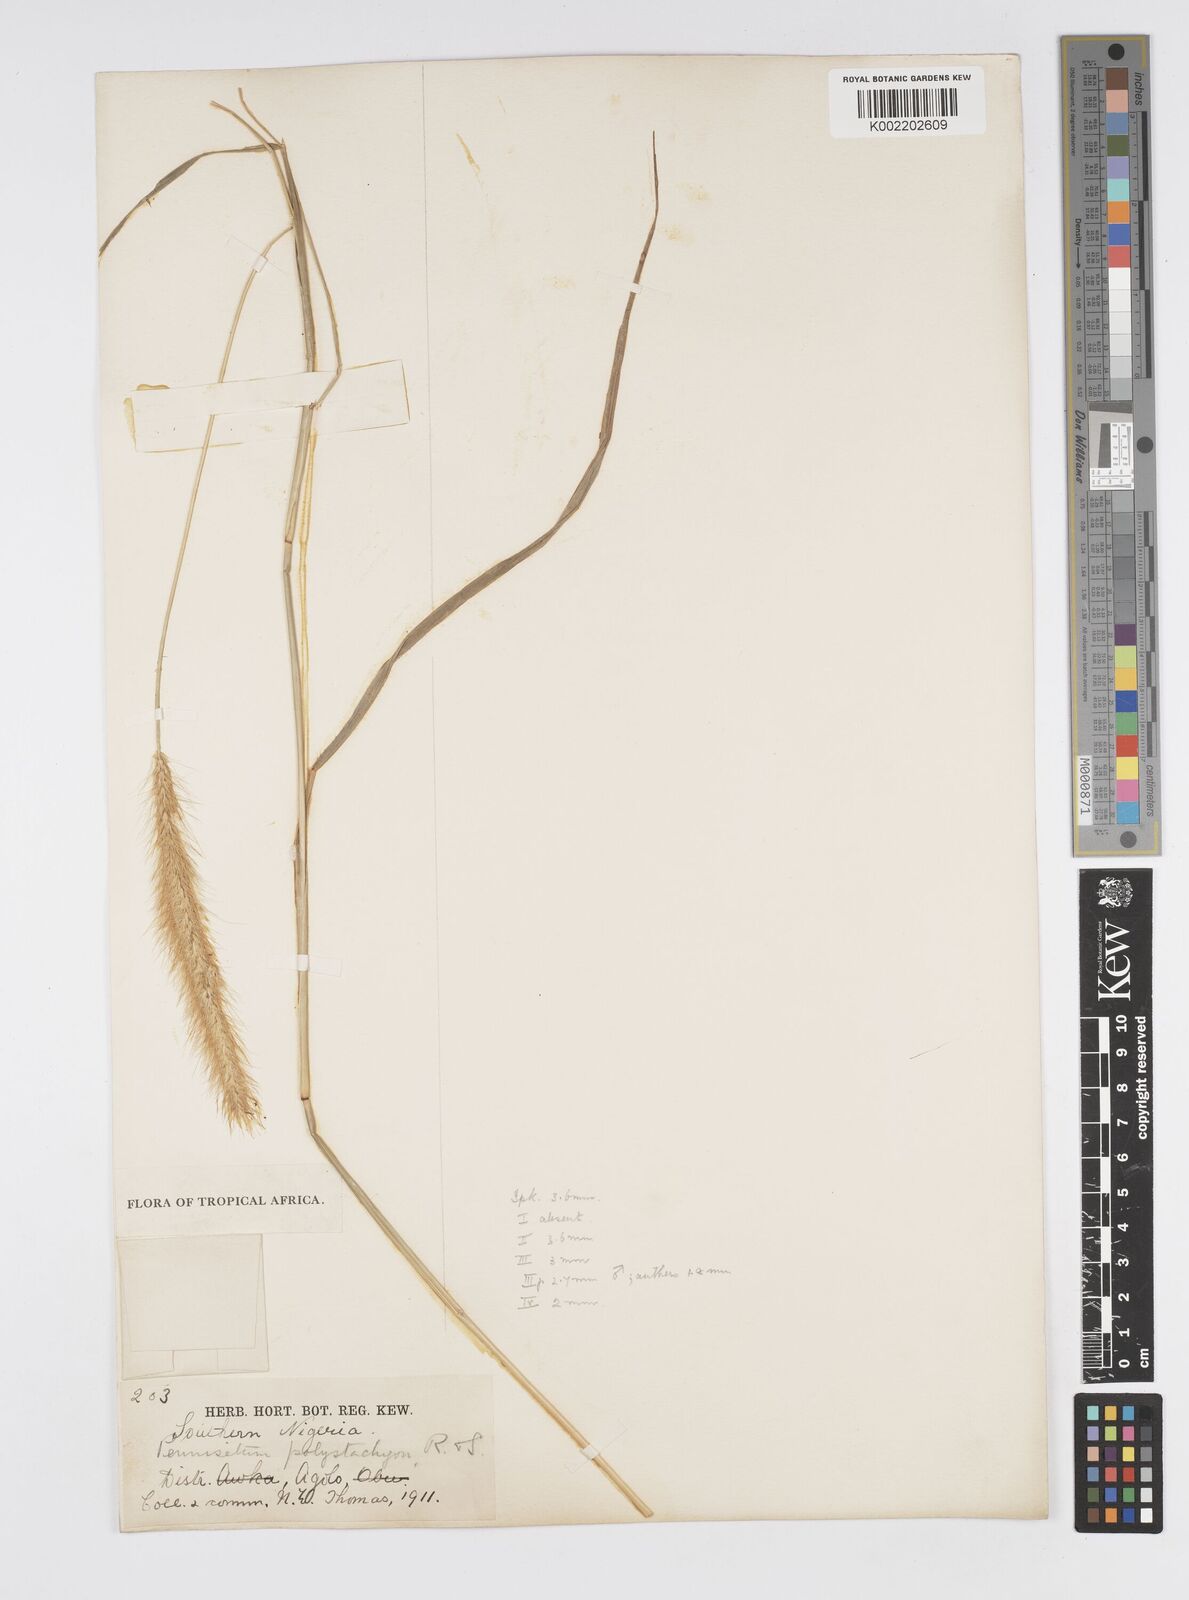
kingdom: Plantae
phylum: Tracheophyta
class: Liliopsida
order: Poales
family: Poaceae
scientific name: Poaceae
